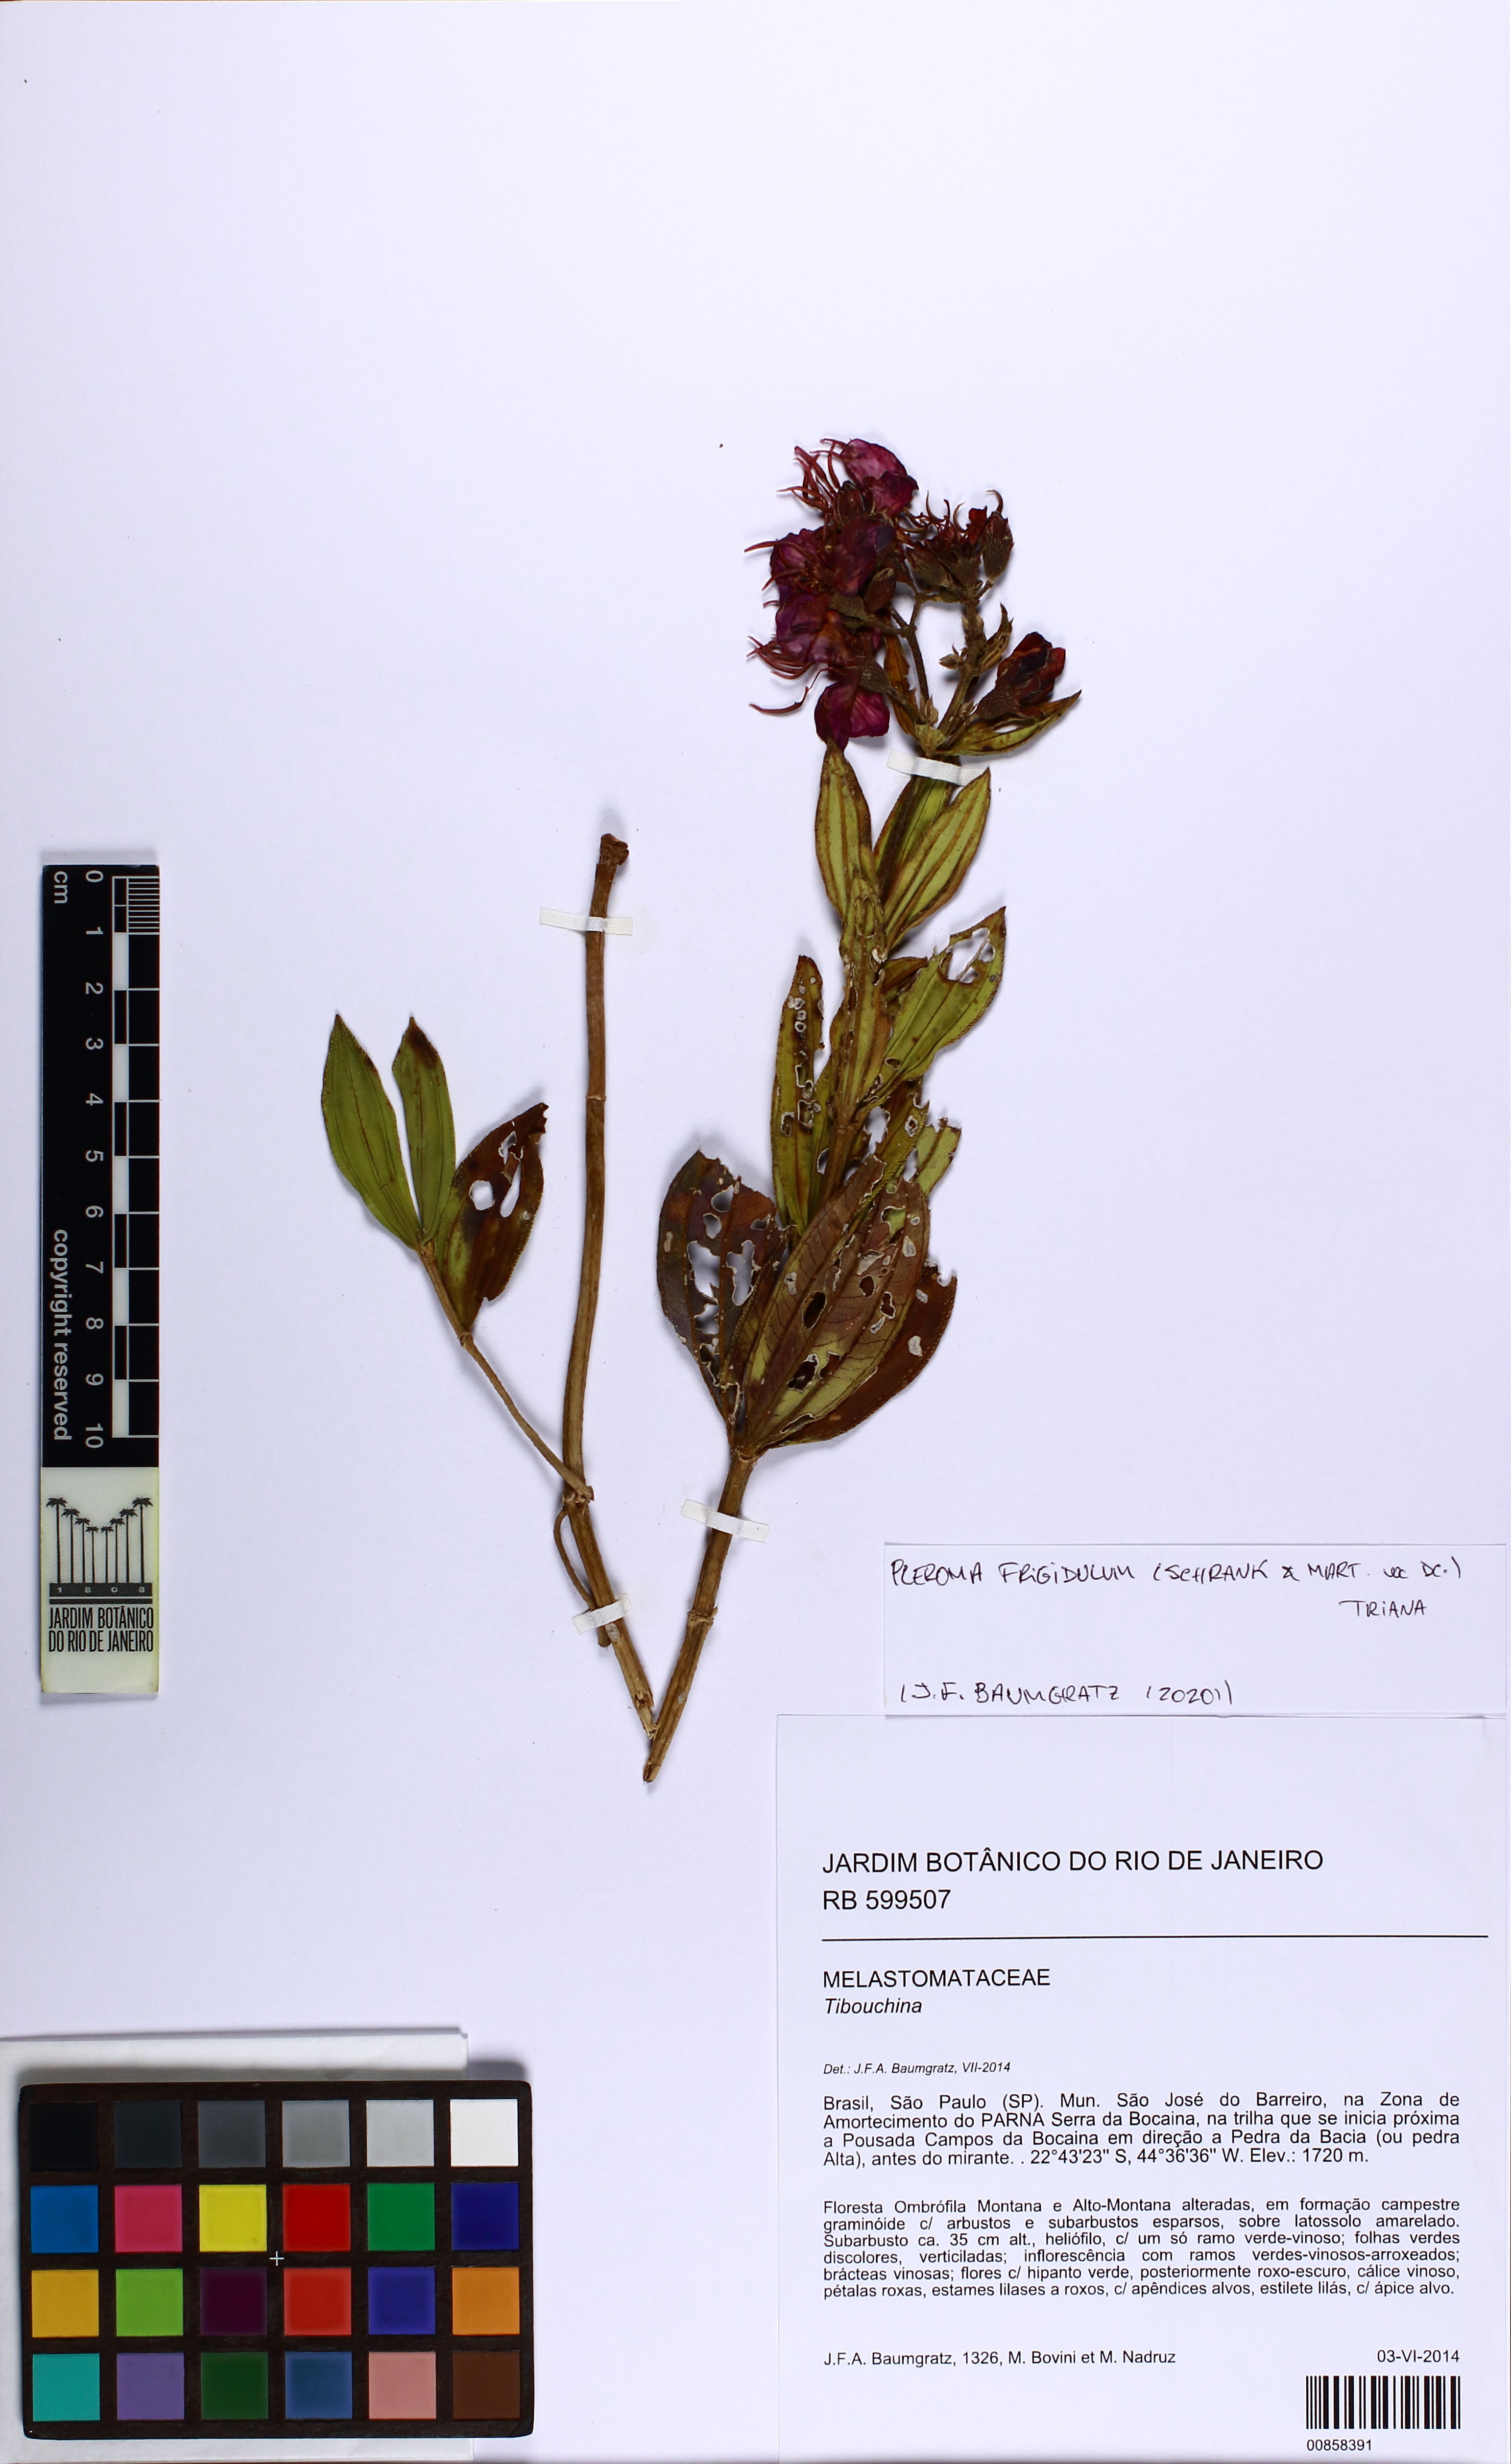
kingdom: Plantae
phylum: Tracheophyta
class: Magnoliopsida
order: Myrtales
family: Melastomataceae
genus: Pleroma
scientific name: Pleroma martiusianum
